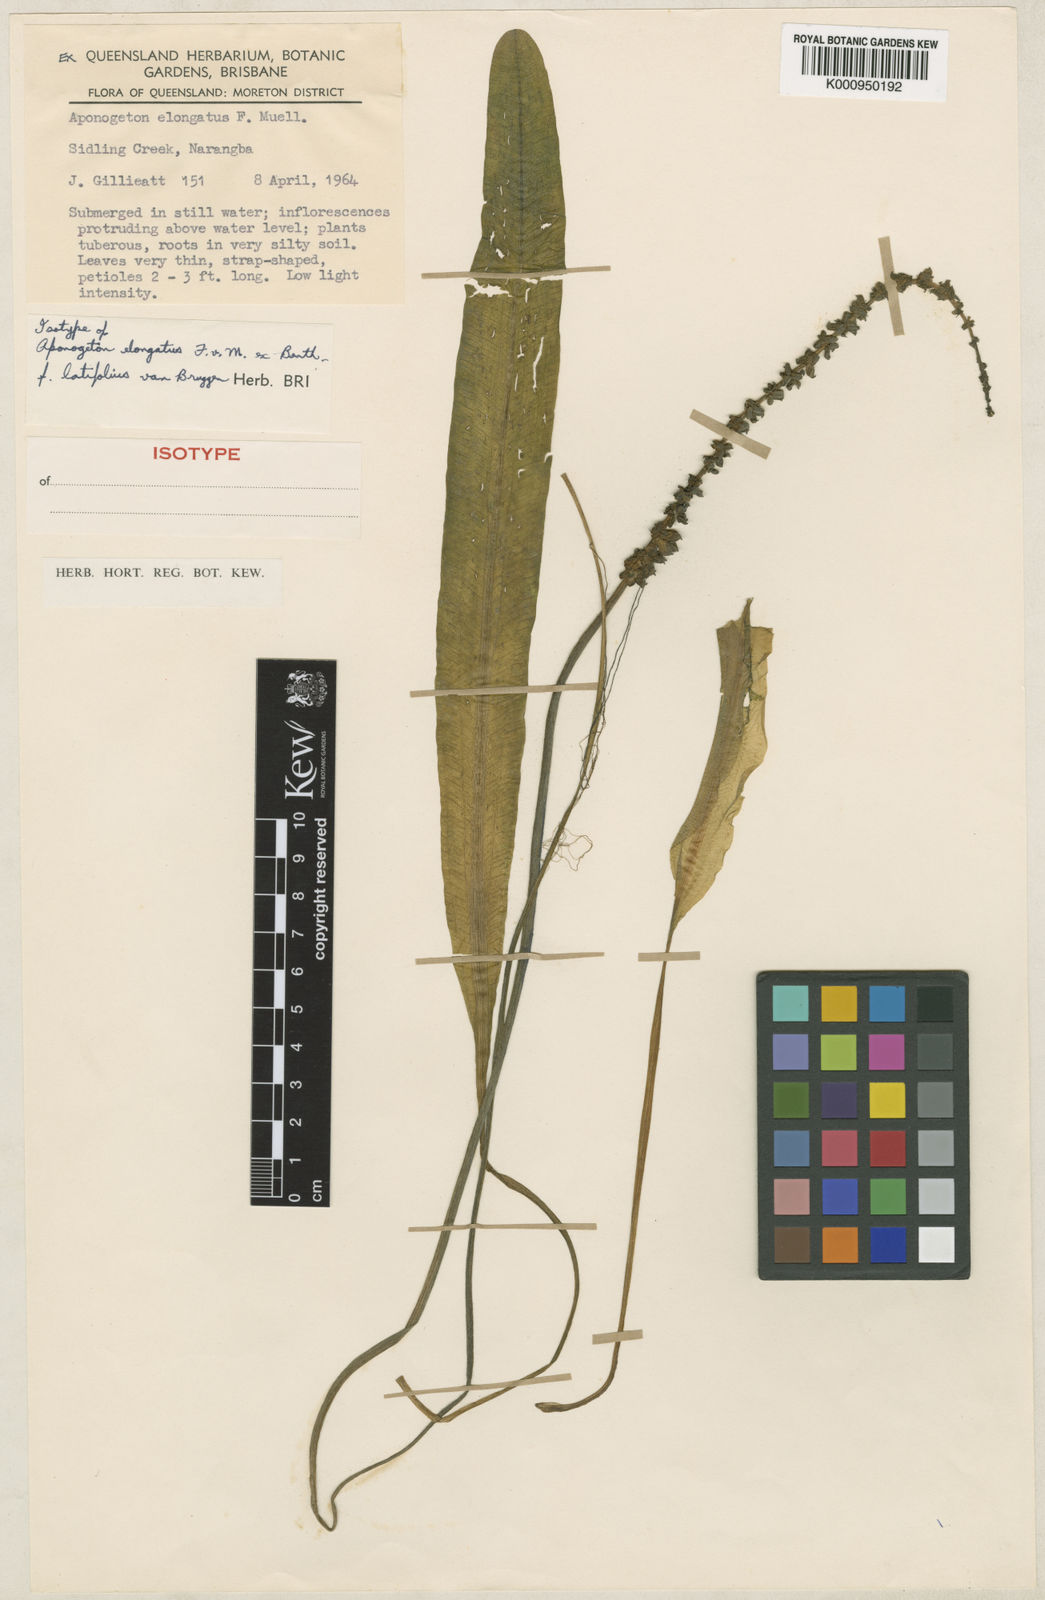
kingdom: Plantae
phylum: Tracheophyta
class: Liliopsida
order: Alismatales
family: Aponogetonaceae
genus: Aponogeton
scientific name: Aponogeton elongatus
